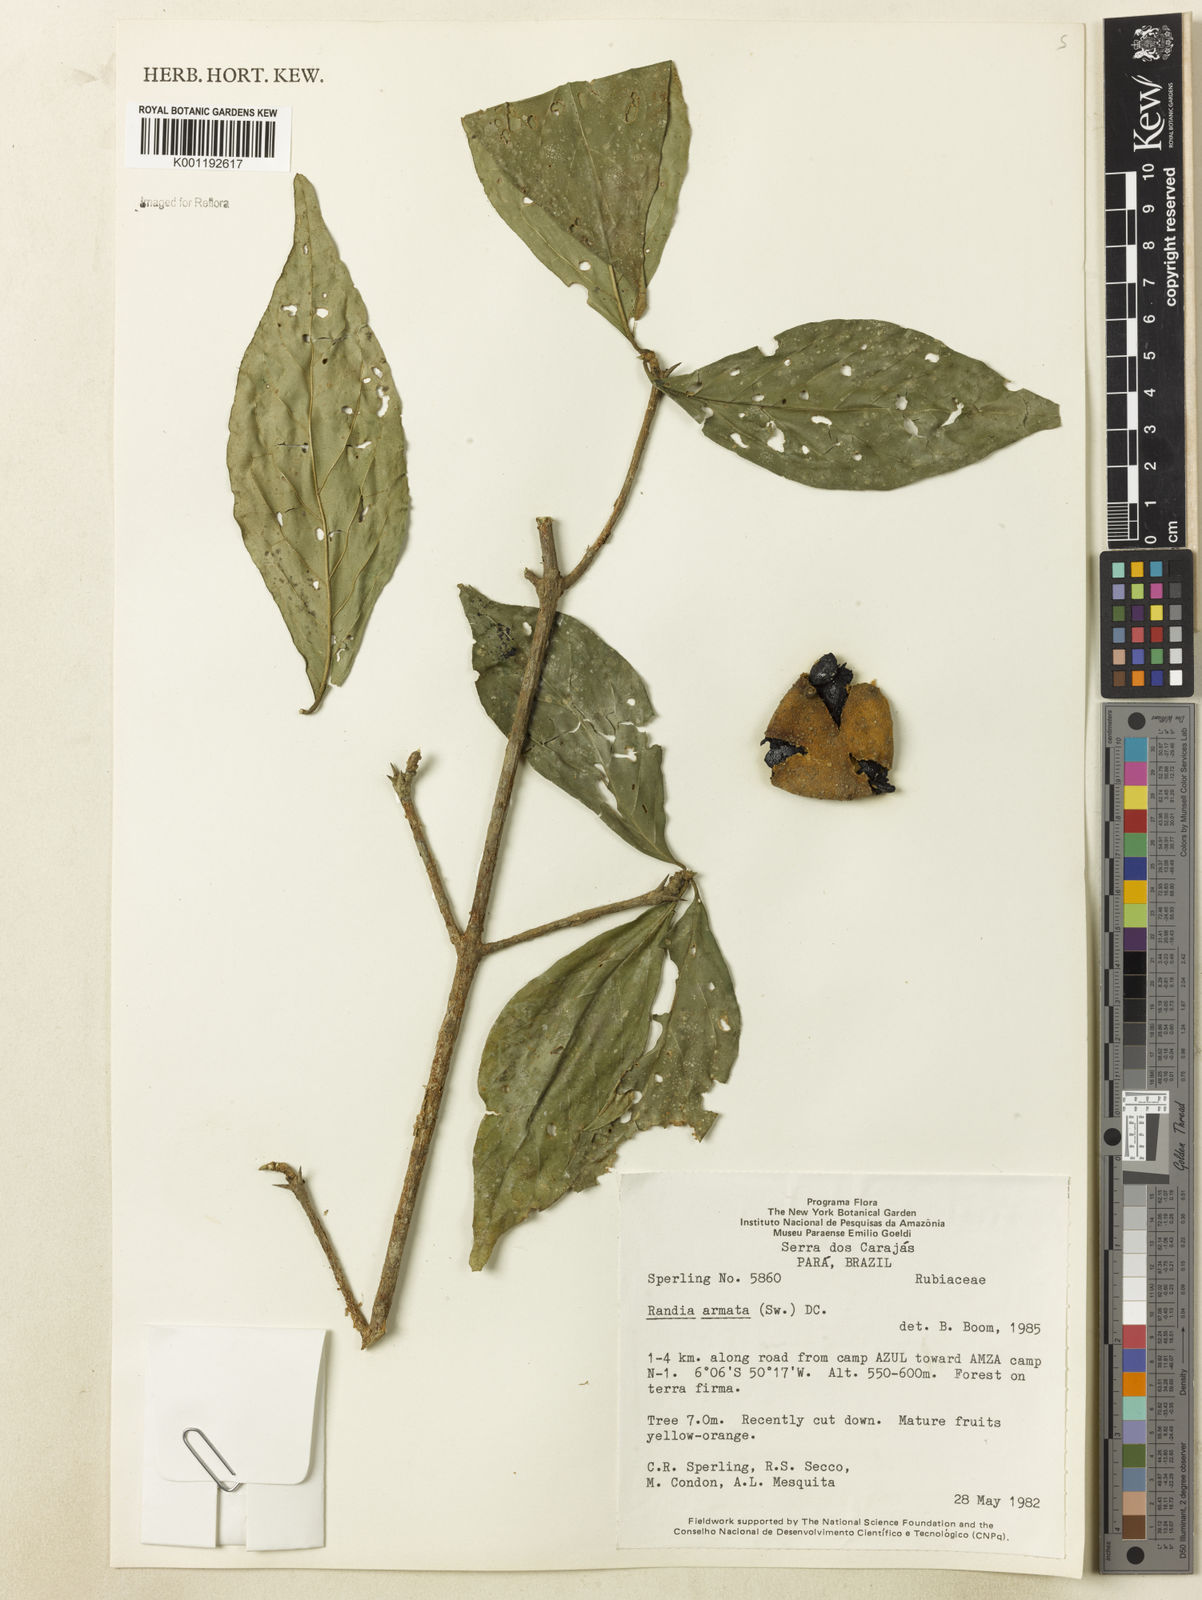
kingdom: Plantae
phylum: Tracheophyta
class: Magnoliopsida
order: Gentianales
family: Rubiaceae
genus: Randia
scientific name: Randia armata
